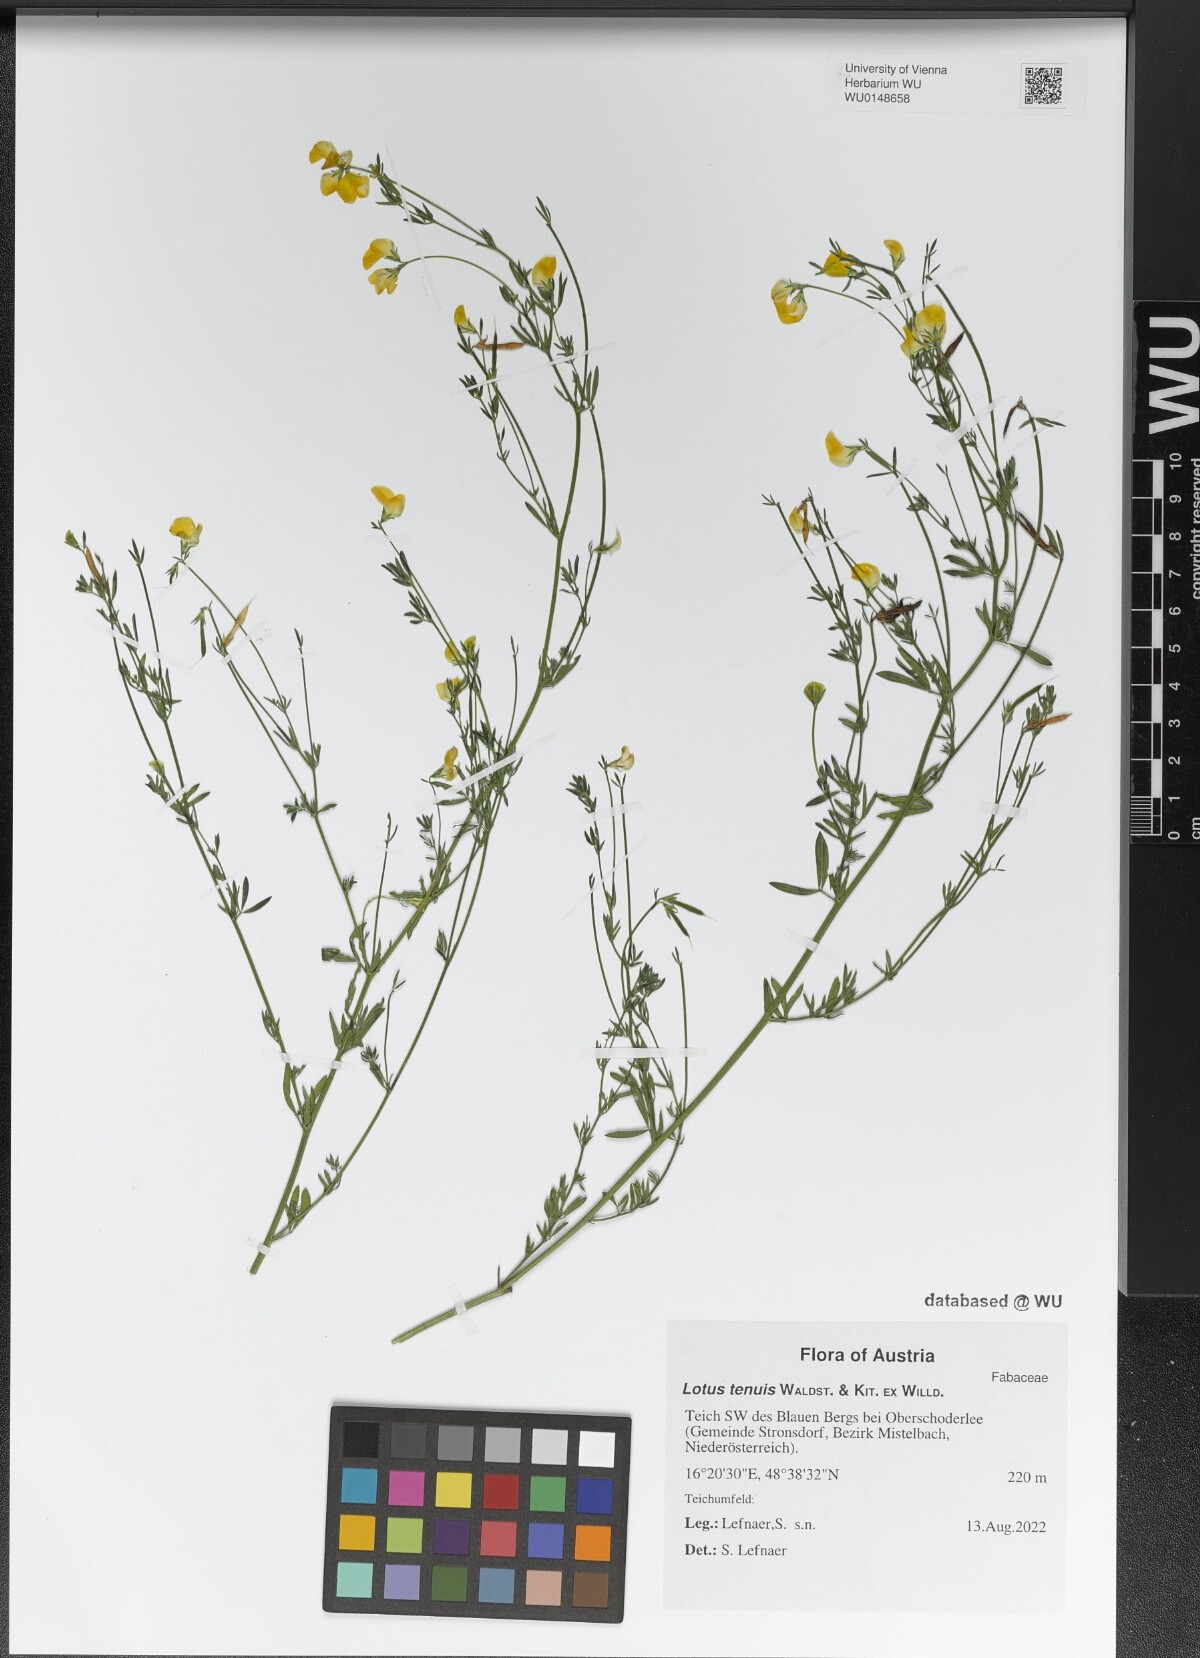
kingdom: Plantae
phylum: Tracheophyta
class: Magnoliopsida
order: Fabales
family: Fabaceae
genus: Lotus
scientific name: Lotus tenuis
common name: Narrow-leaved bird's-foot-trefoil
